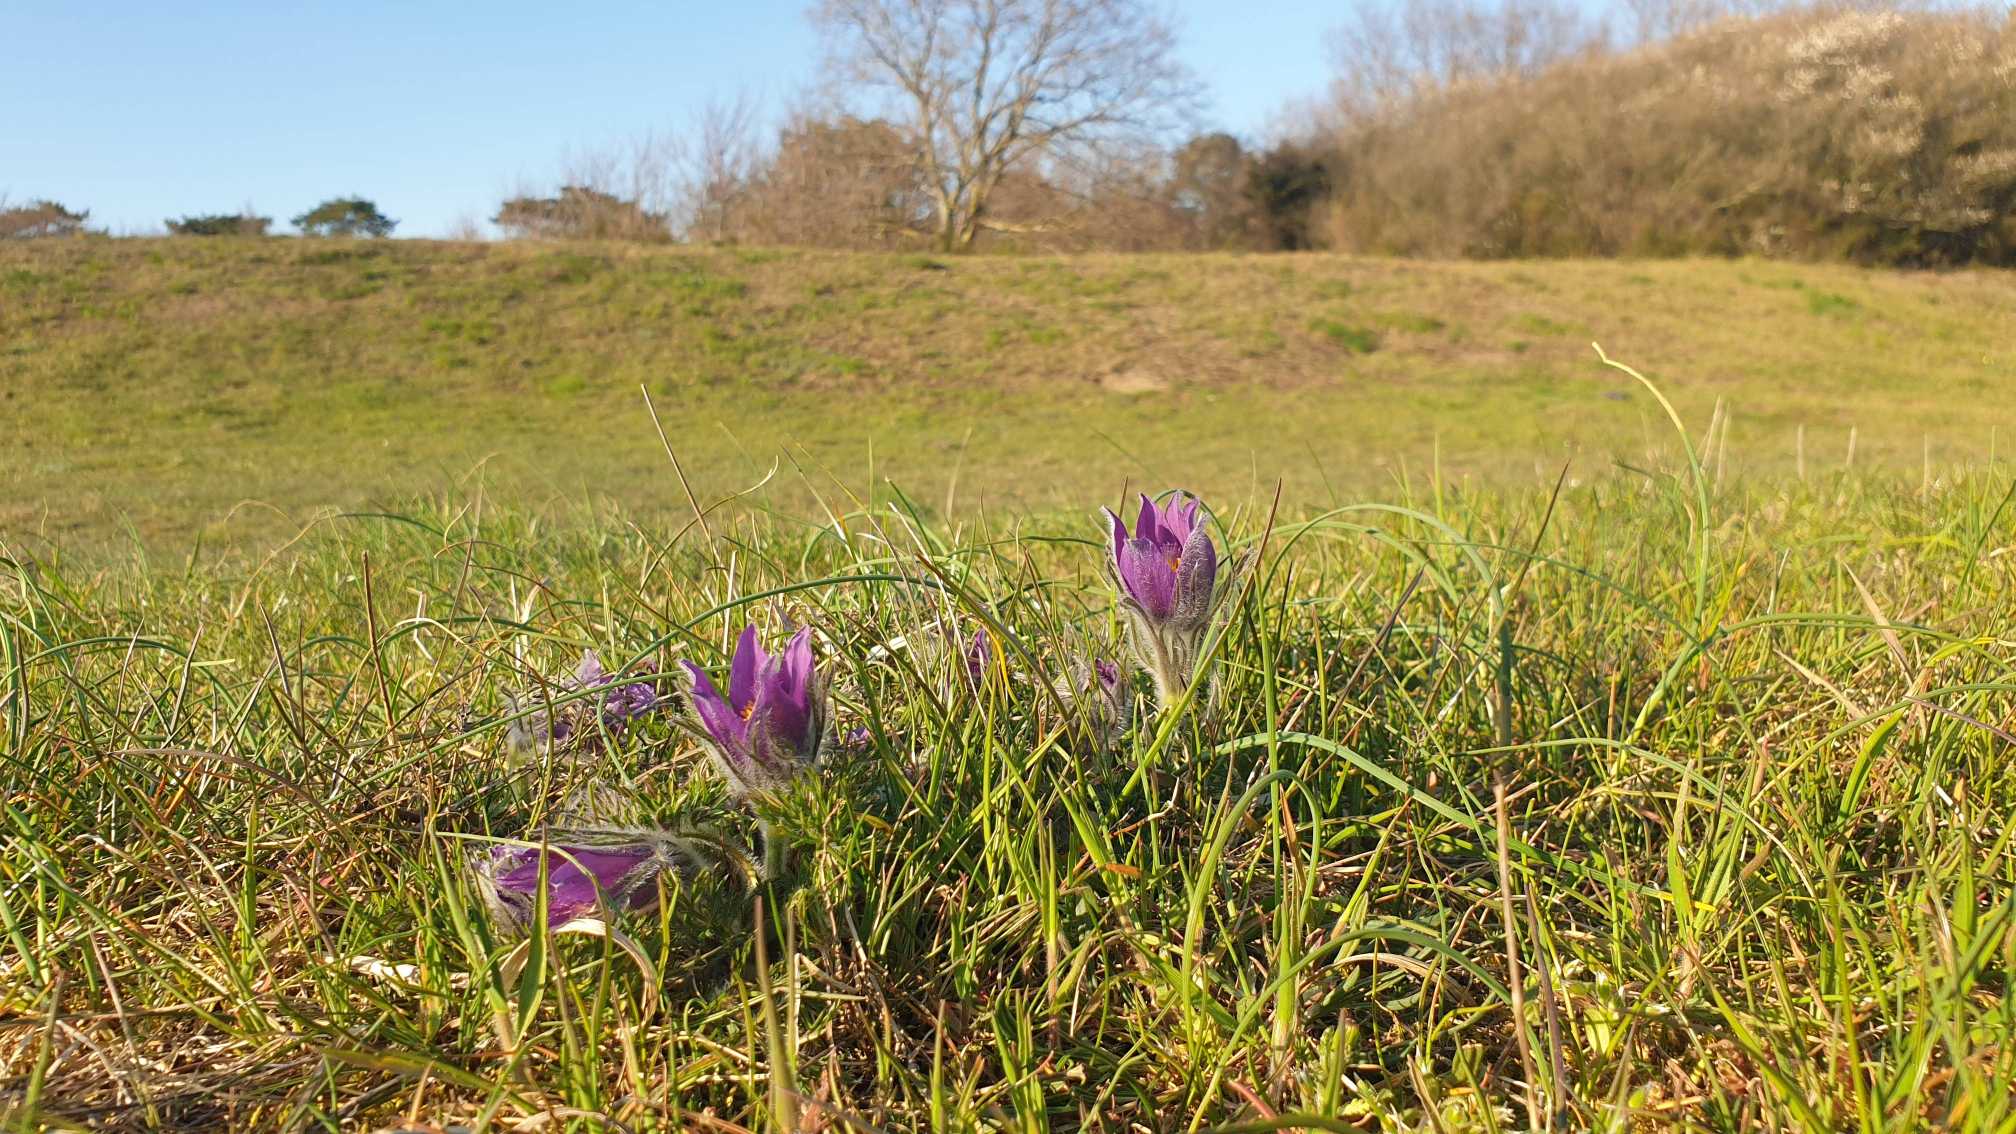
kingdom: Plantae
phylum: Tracheophyta
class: Magnoliopsida
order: Ranunculales
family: Ranunculaceae
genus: Pulsatilla
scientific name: Pulsatilla vulgaris
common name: Opret kobjælde
